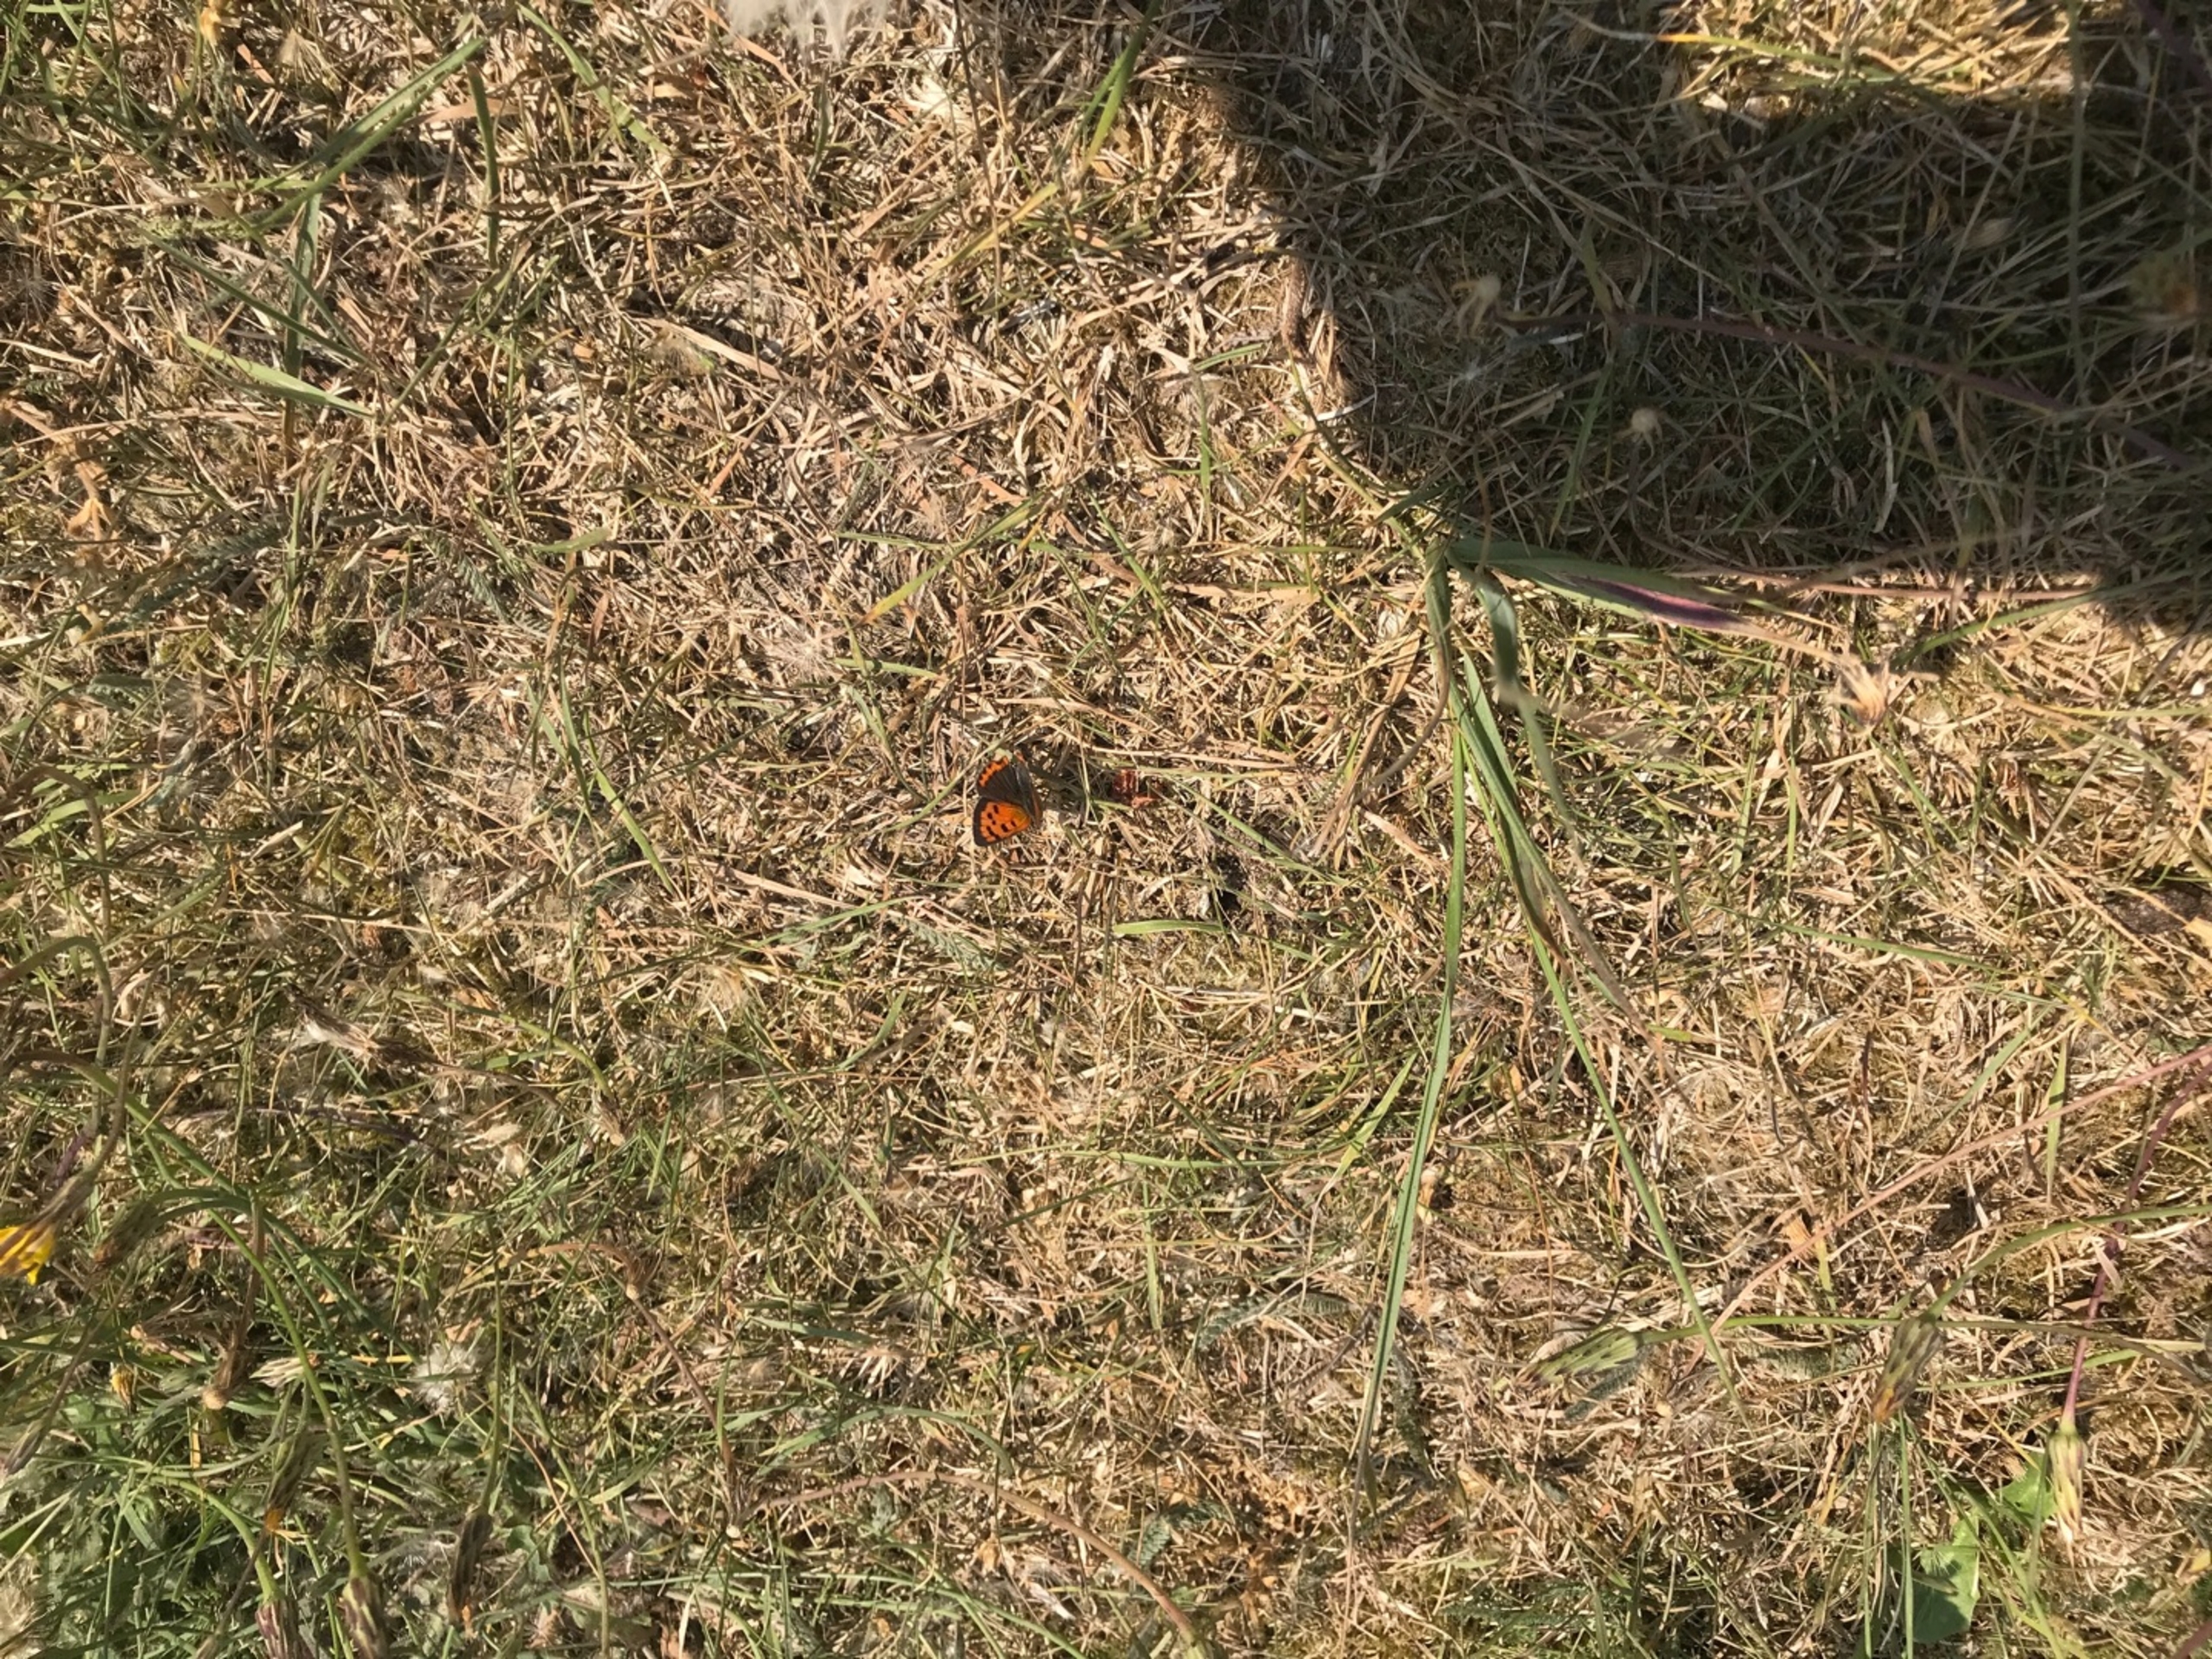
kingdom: Animalia
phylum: Arthropoda
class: Insecta
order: Lepidoptera
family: Lycaenidae
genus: Lycaena
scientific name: Lycaena phlaeas
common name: Lille ildfugl
